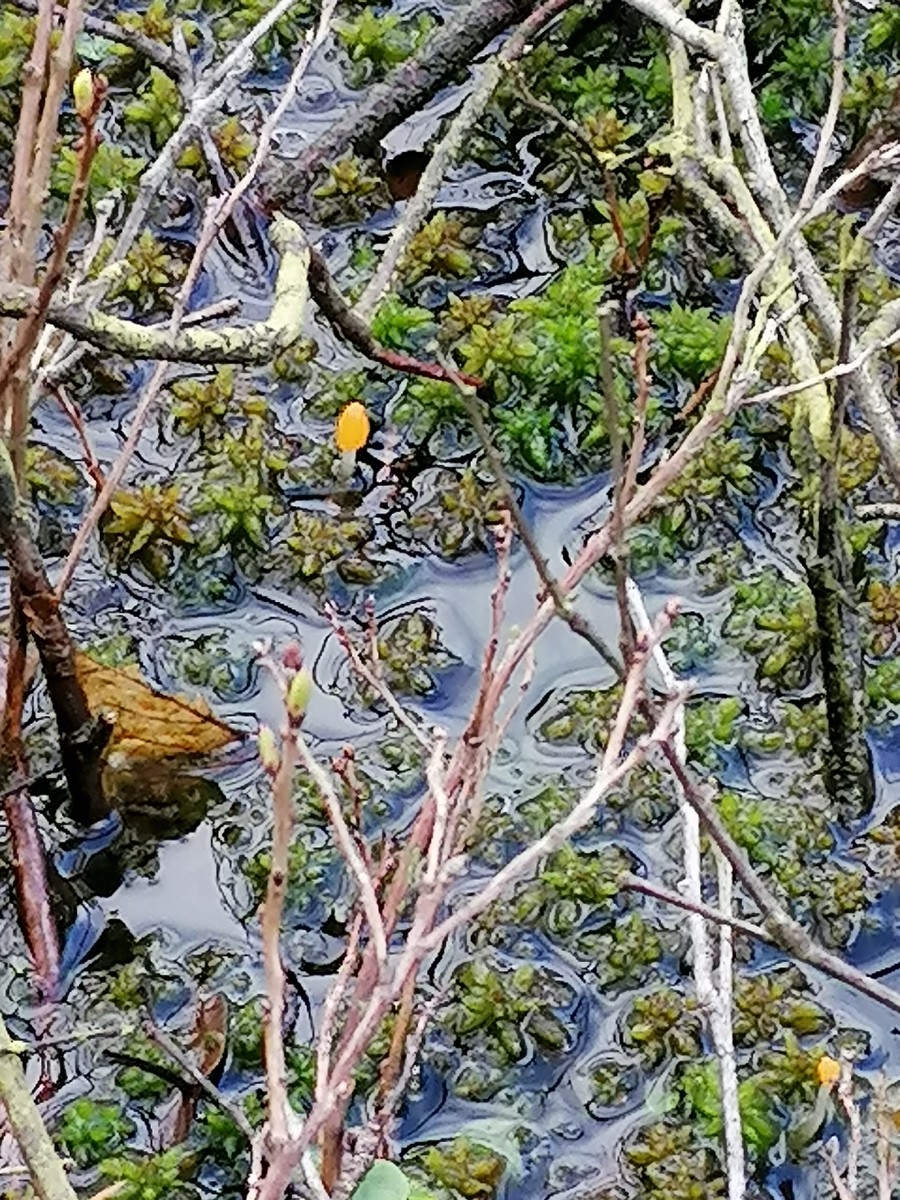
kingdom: Fungi
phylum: Ascomycota
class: Leotiomycetes
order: Helotiales
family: Cenangiaceae
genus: Mitrula
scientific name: Mitrula paludosa
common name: gul nøkketunge
